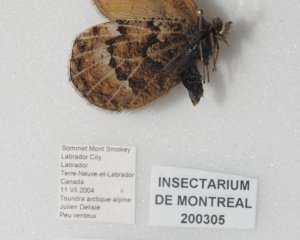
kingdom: Animalia
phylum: Arthropoda
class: Insecta
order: Lepidoptera
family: Nymphalidae
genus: Oeneis
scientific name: Oeneis bore
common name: White-veined Arctic
